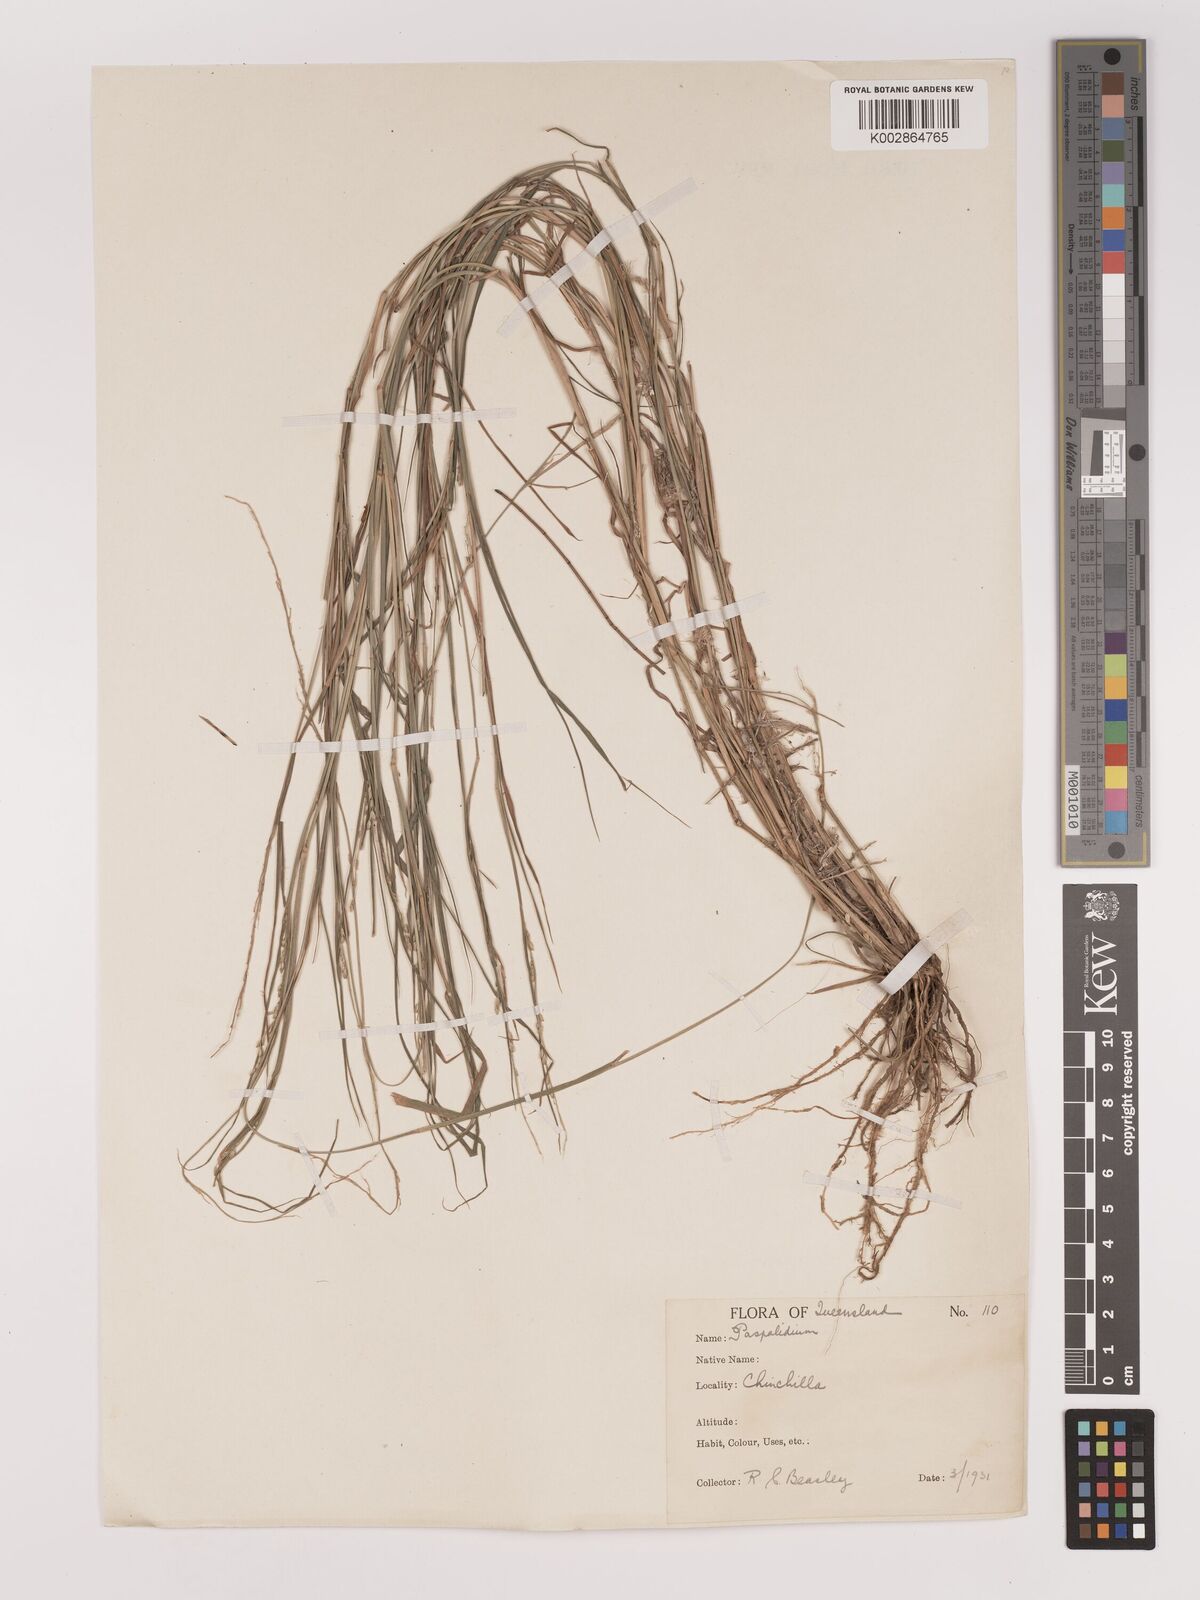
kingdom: Plantae
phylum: Tracheophyta
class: Liliopsida
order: Poales
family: Poaceae
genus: Setaria
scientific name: Setaria constricta
